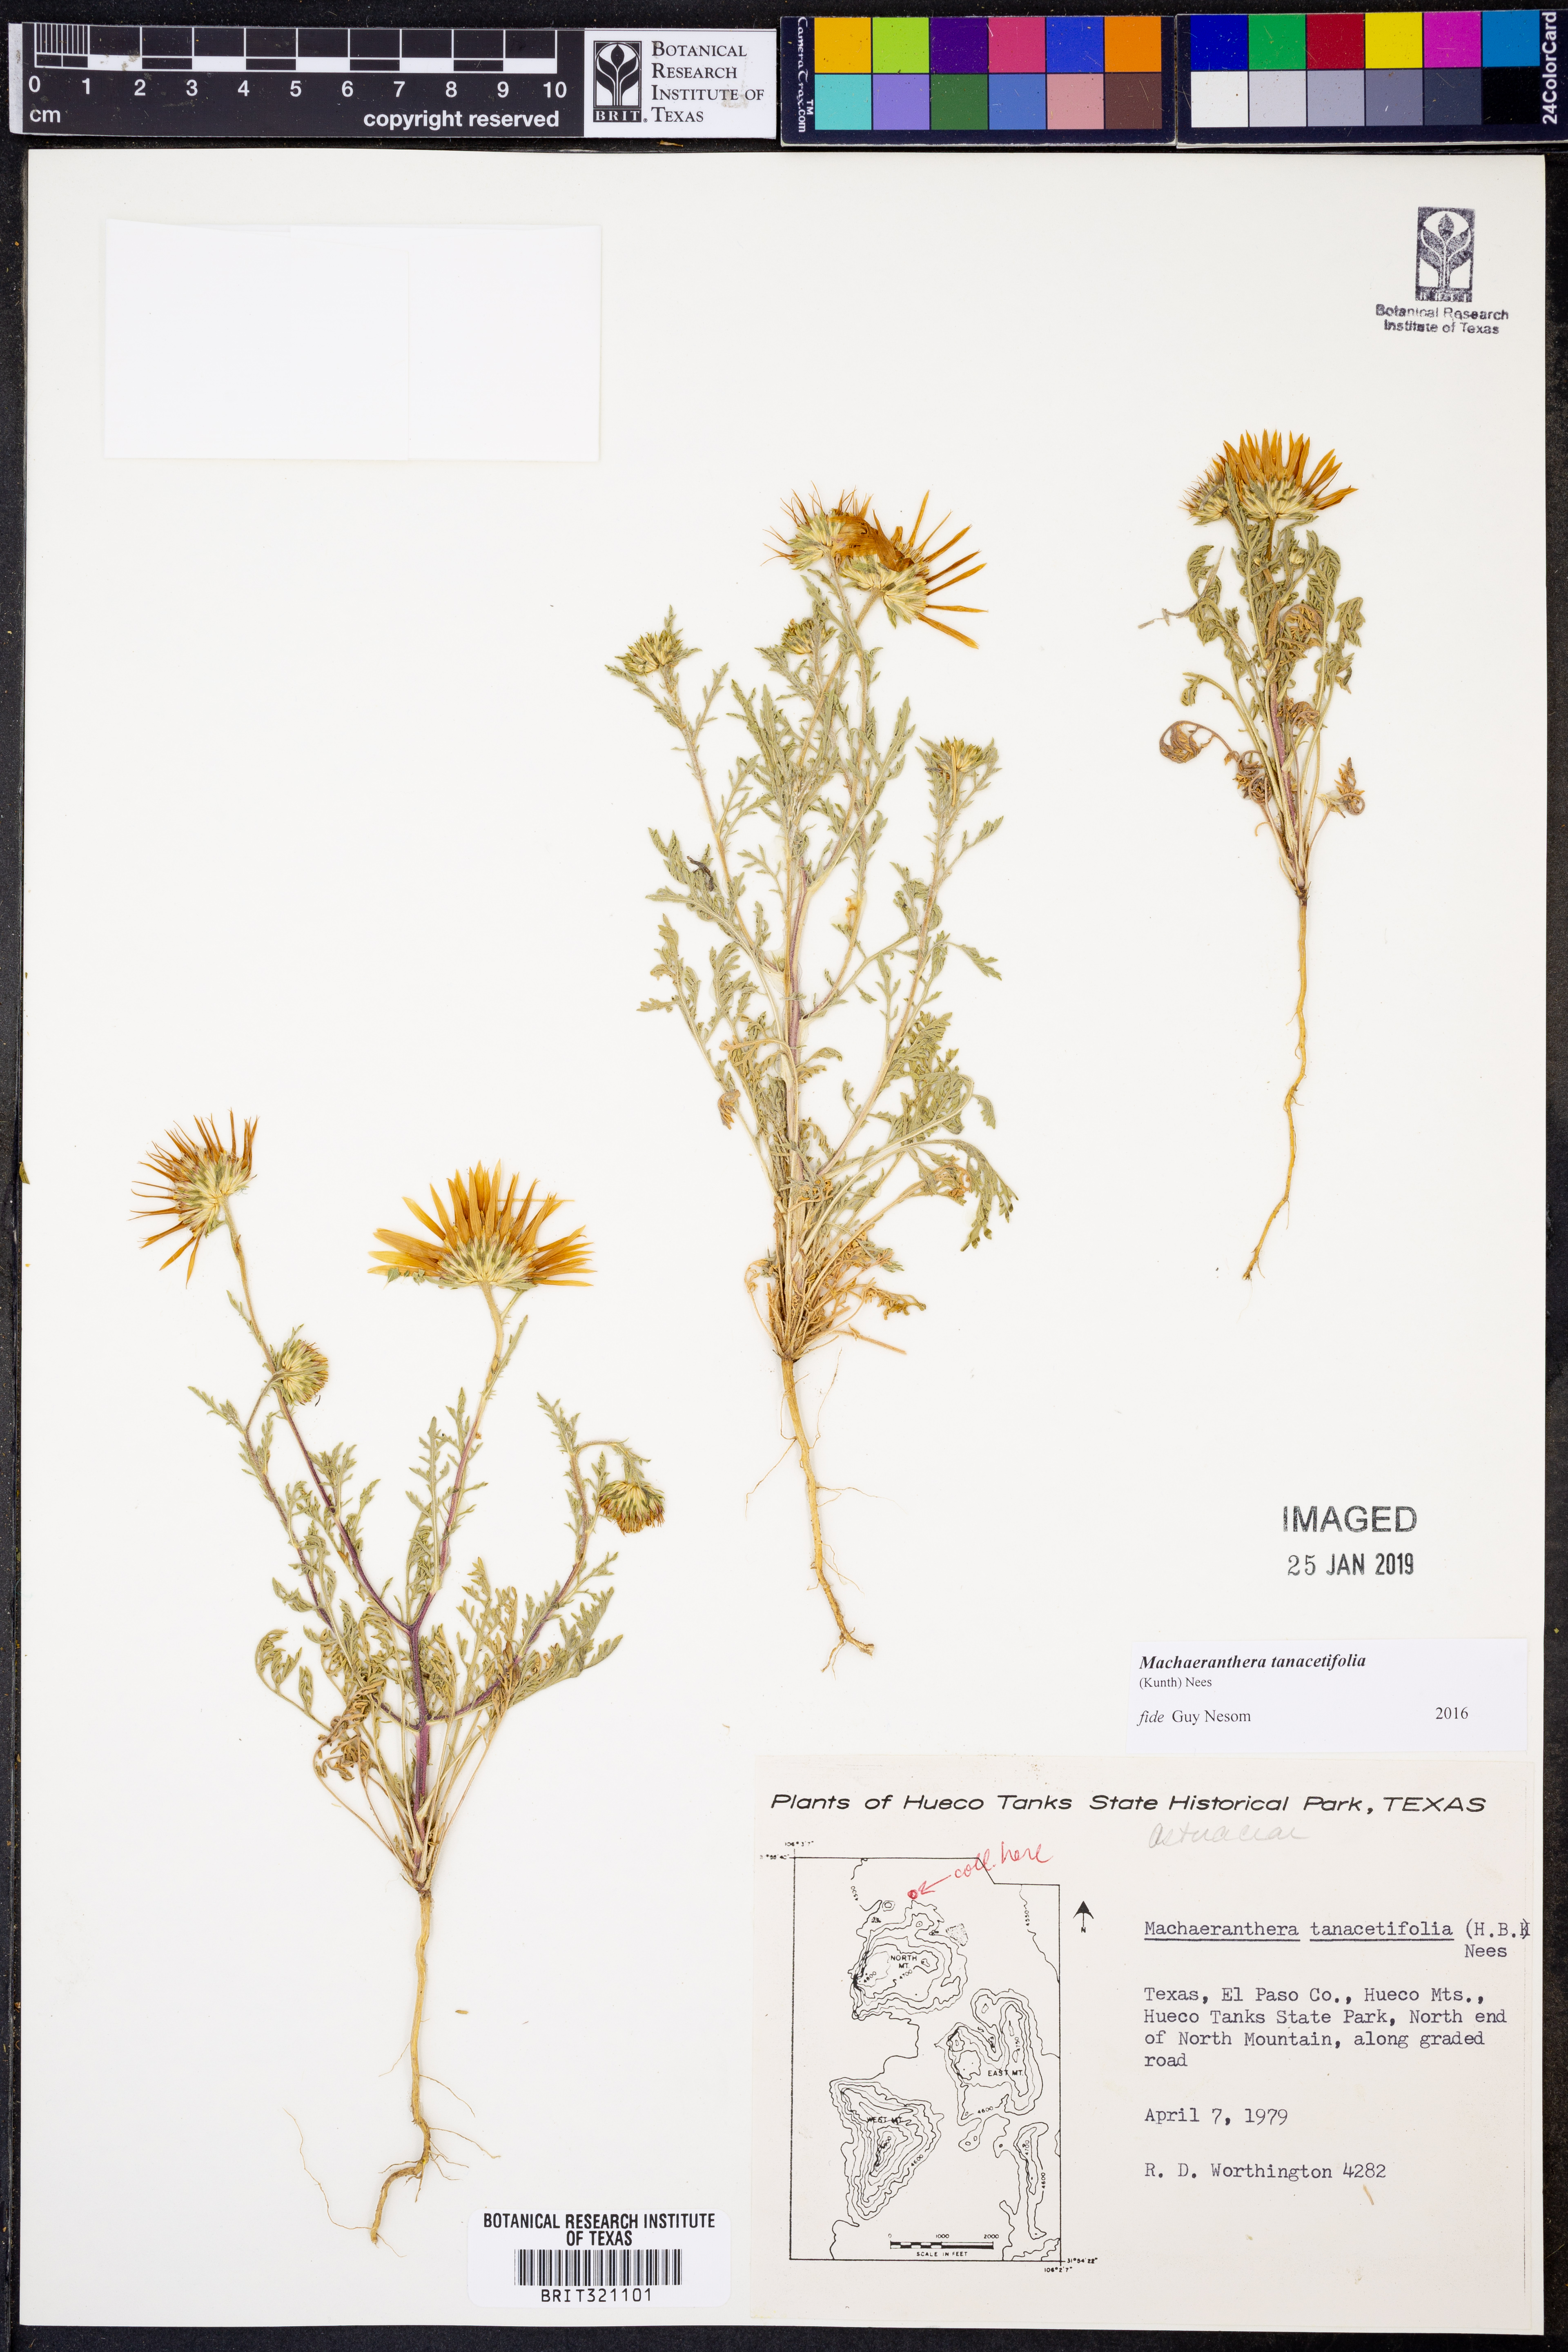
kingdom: Plantae
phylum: Tracheophyta
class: Magnoliopsida
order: Asterales
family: Asteraceae
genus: Machaeranthera
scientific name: Machaeranthera tanacetifolia
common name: Tansy-aster
